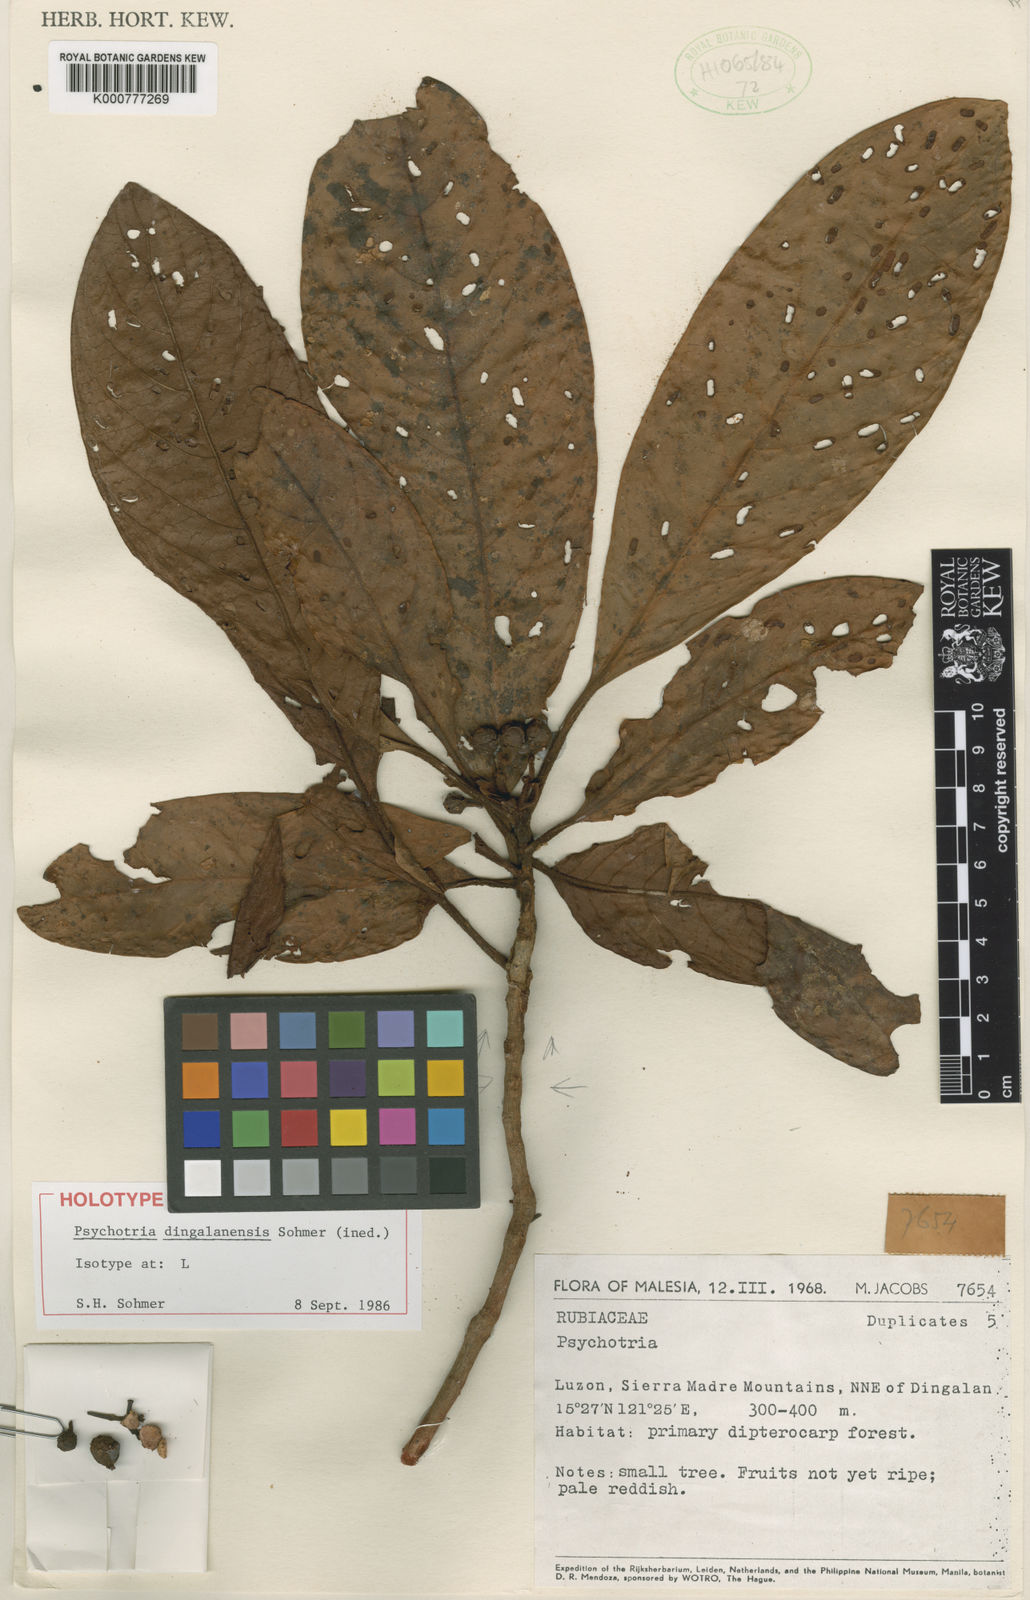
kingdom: Plantae
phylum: Tracheophyta
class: Magnoliopsida
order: Gentianales
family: Rubiaceae
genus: Psychotria
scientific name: Psychotria dingalanensis
